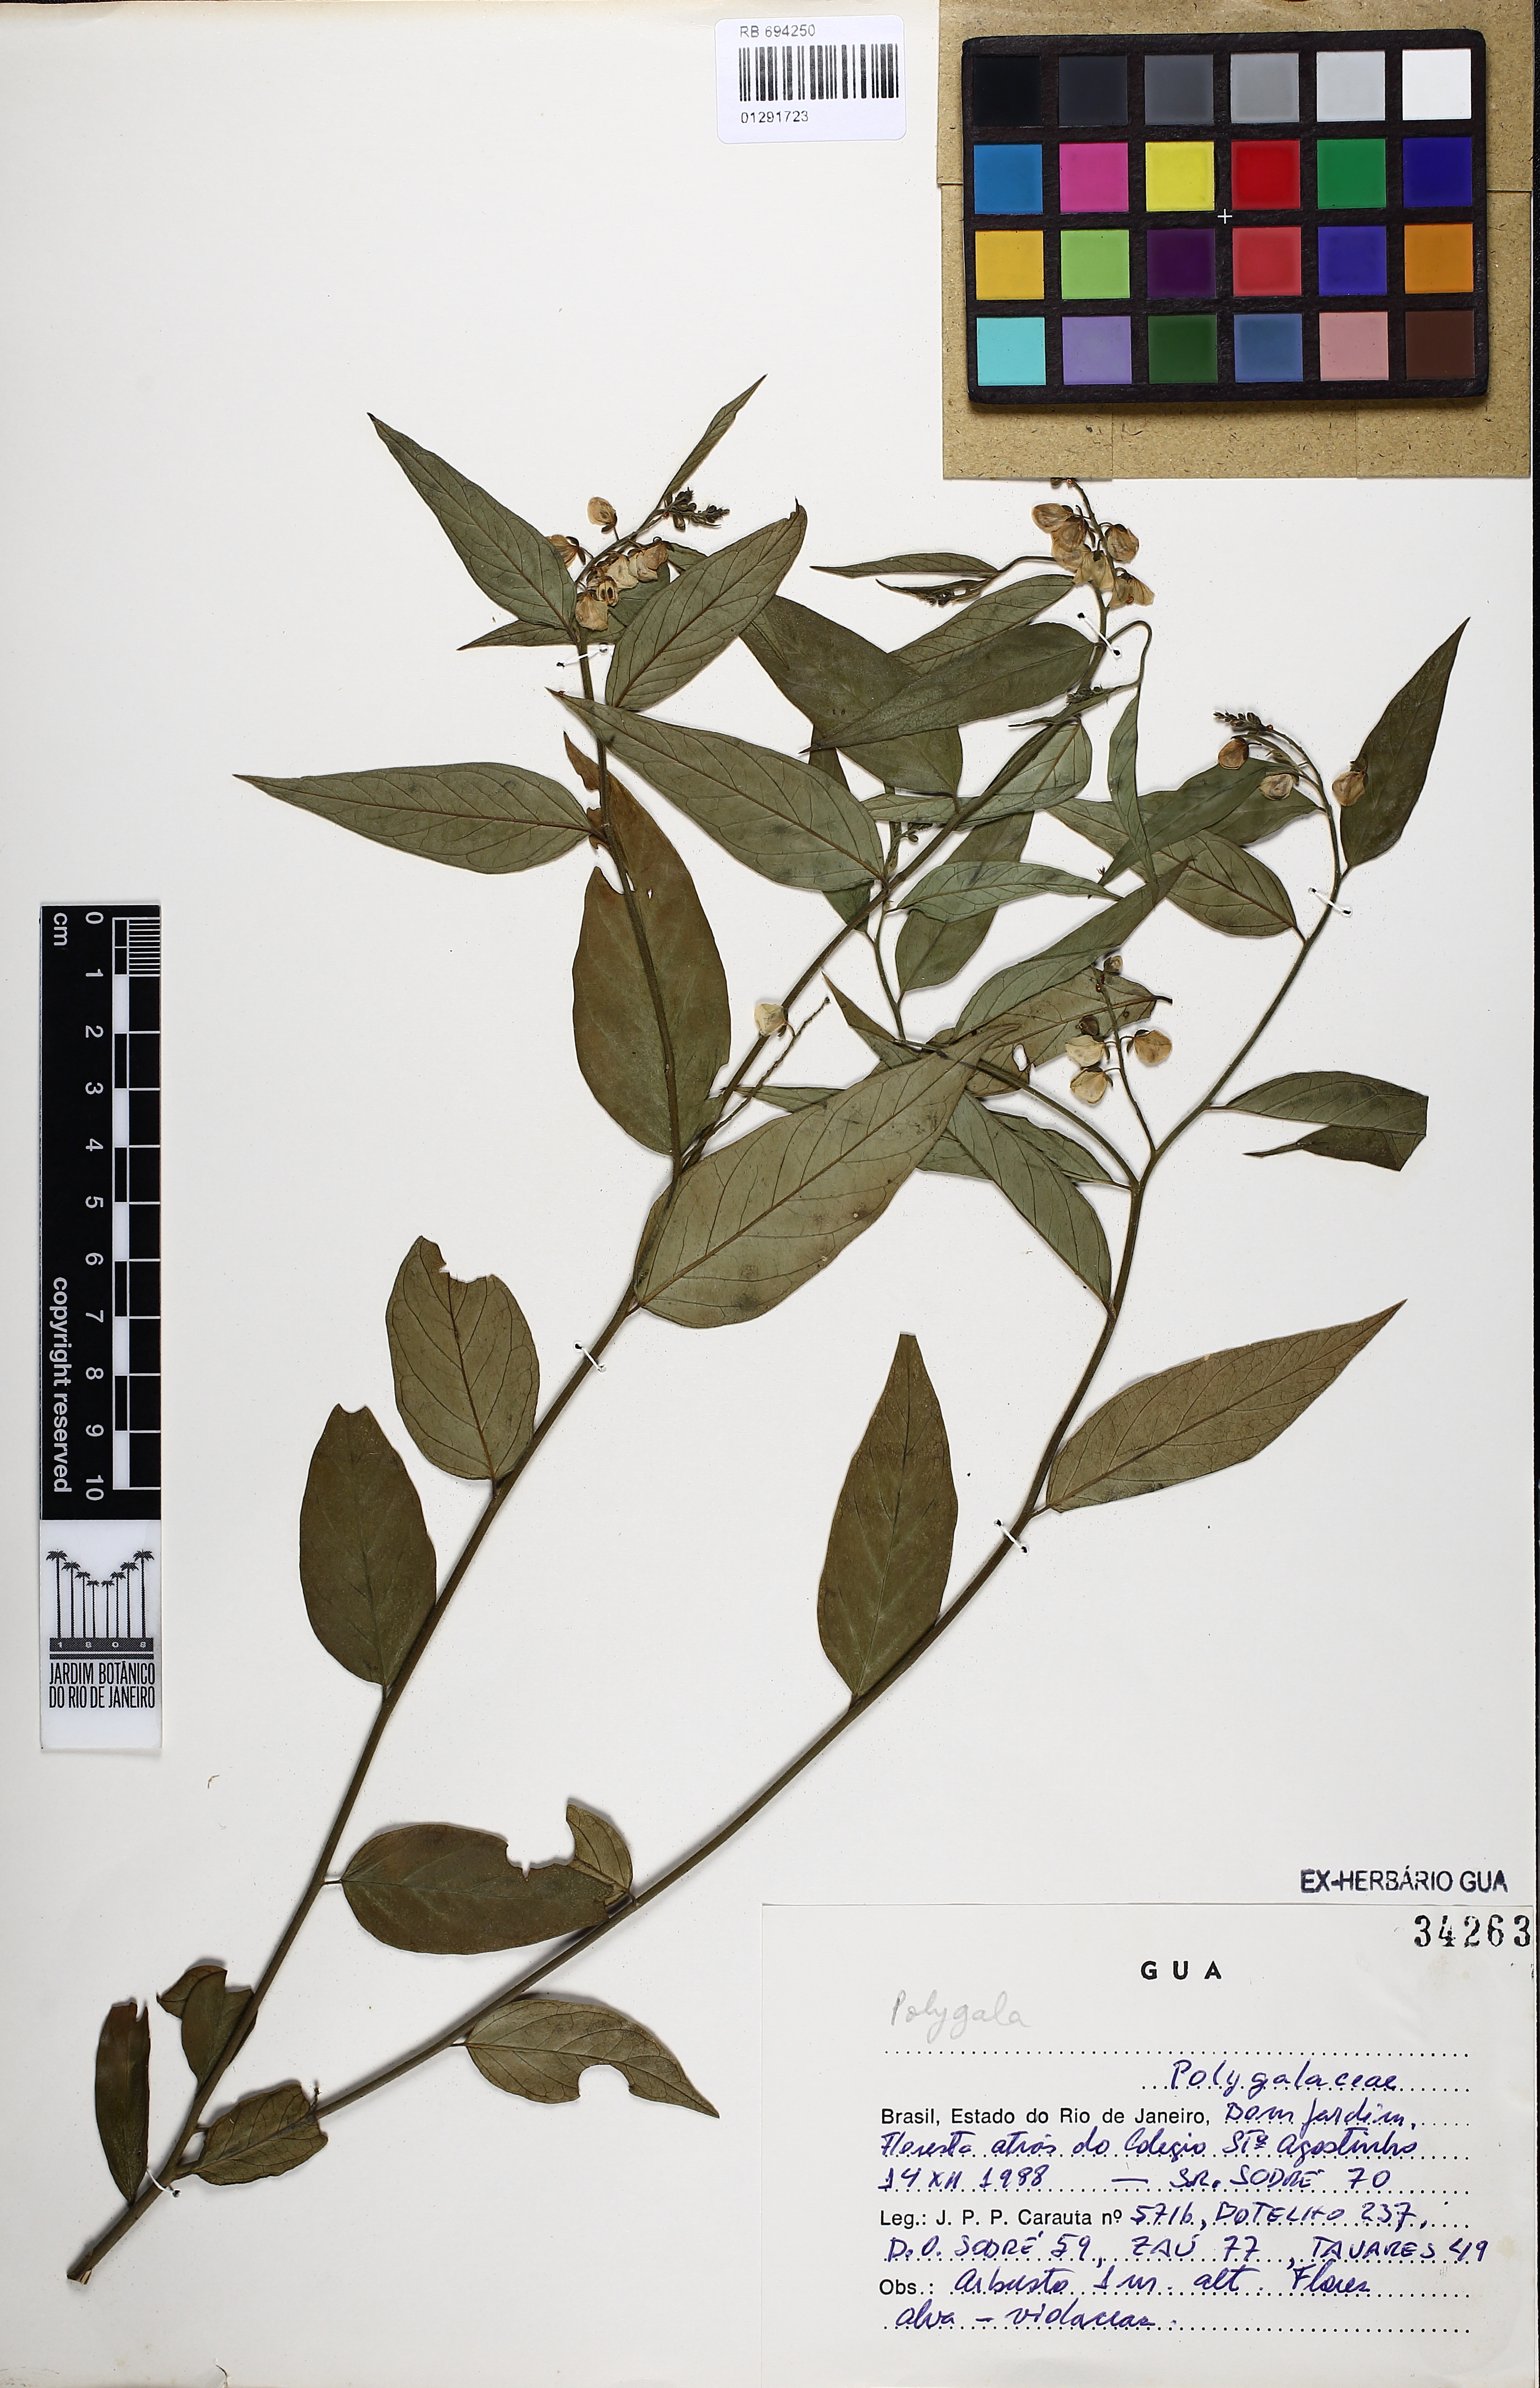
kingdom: Plantae
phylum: Tracheophyta
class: Magnoliopsida
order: Fabales
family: Polygalaceae
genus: Polygala
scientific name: Polygala
